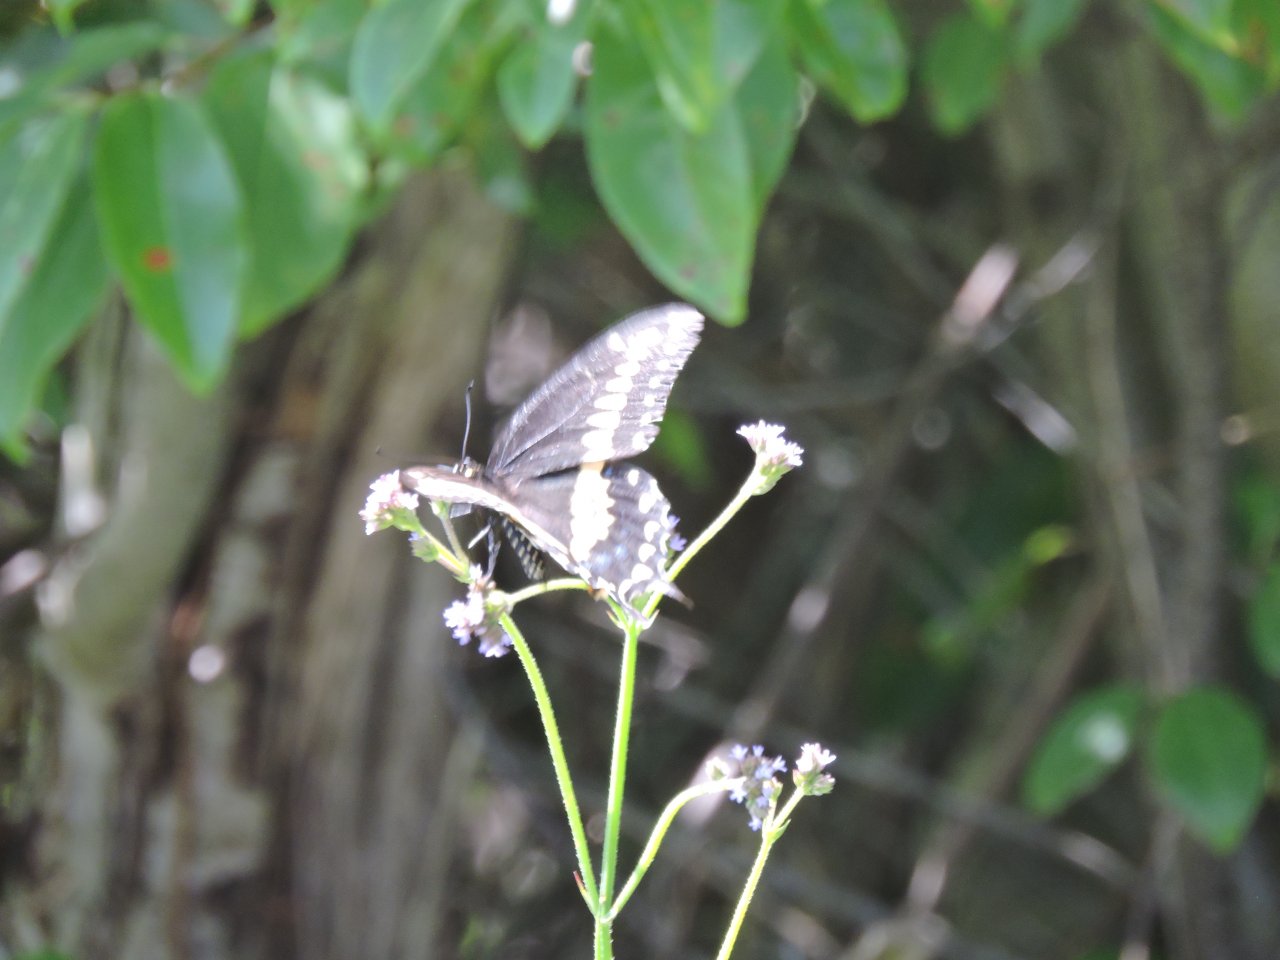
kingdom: Animalia
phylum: Arthropoda
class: Insecta
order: Lepidoptera
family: Papilionidae
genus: Papilio
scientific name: Papilio polyxenes
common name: Black Swallowtail
